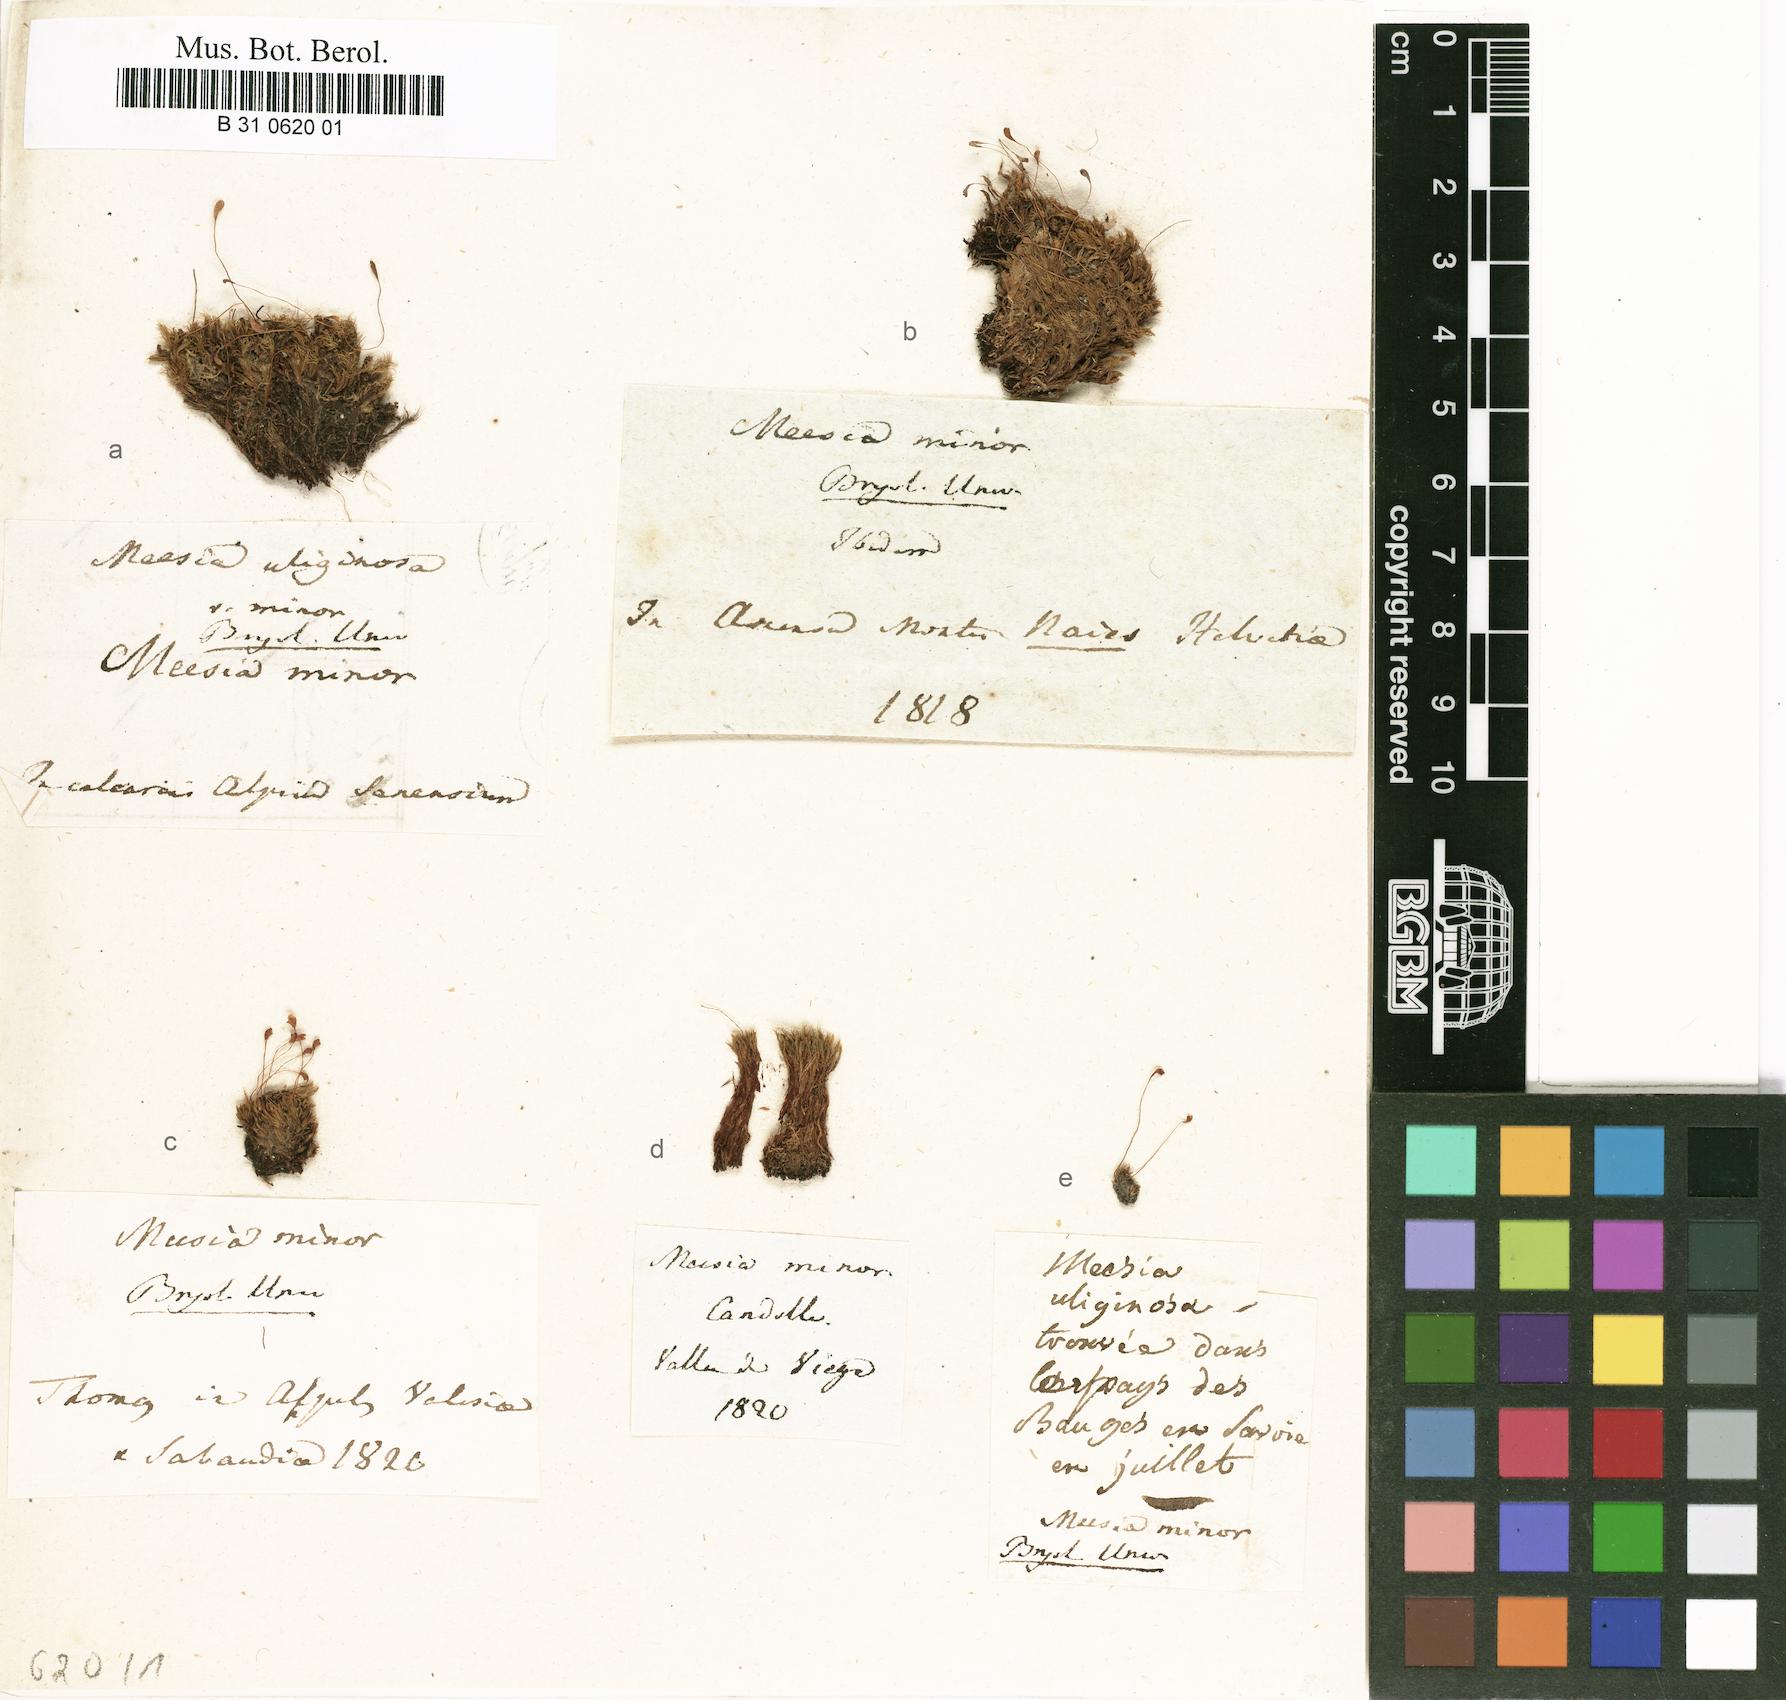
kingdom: Plantae
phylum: Bryophyta
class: Bryopsida
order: Splachnales
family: Meesiaceae
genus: Meesia
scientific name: Meesia minor
